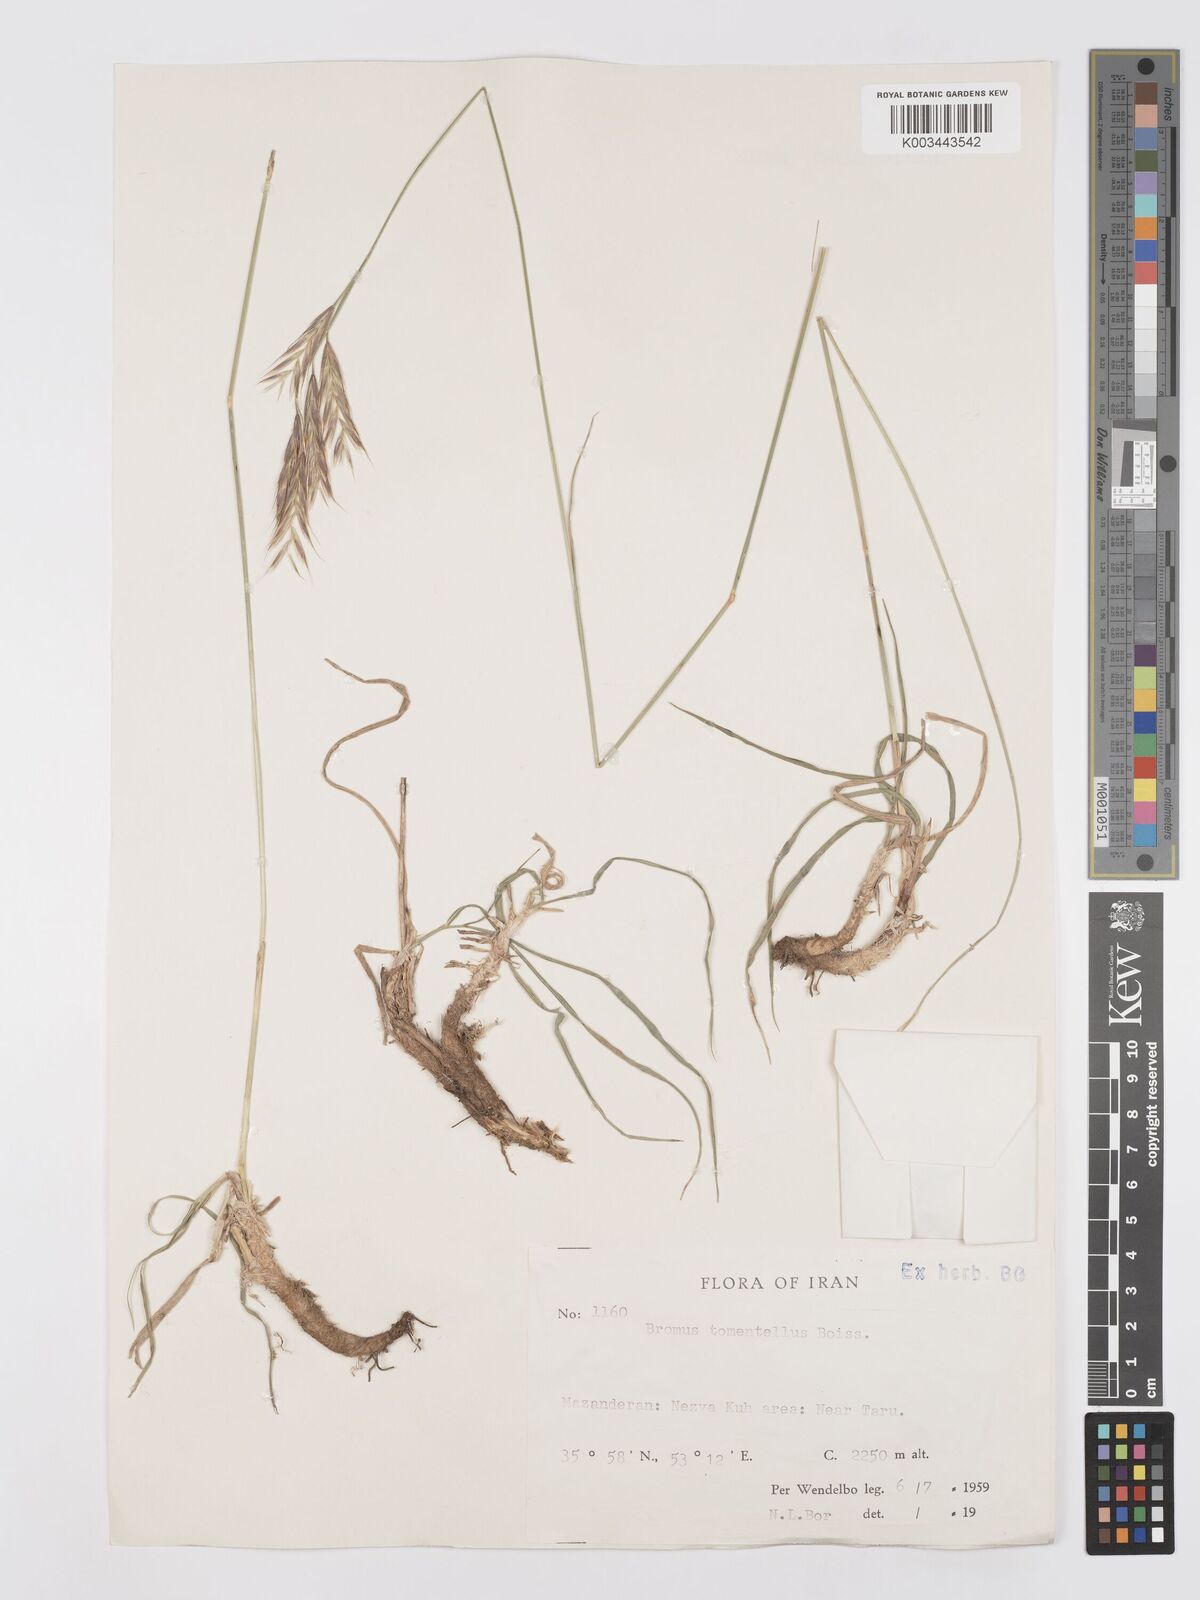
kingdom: Plantae
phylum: Tracheophyta
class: Liliopsida
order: Poales
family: Poaceae
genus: Bromus
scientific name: Bromus tomentellus
